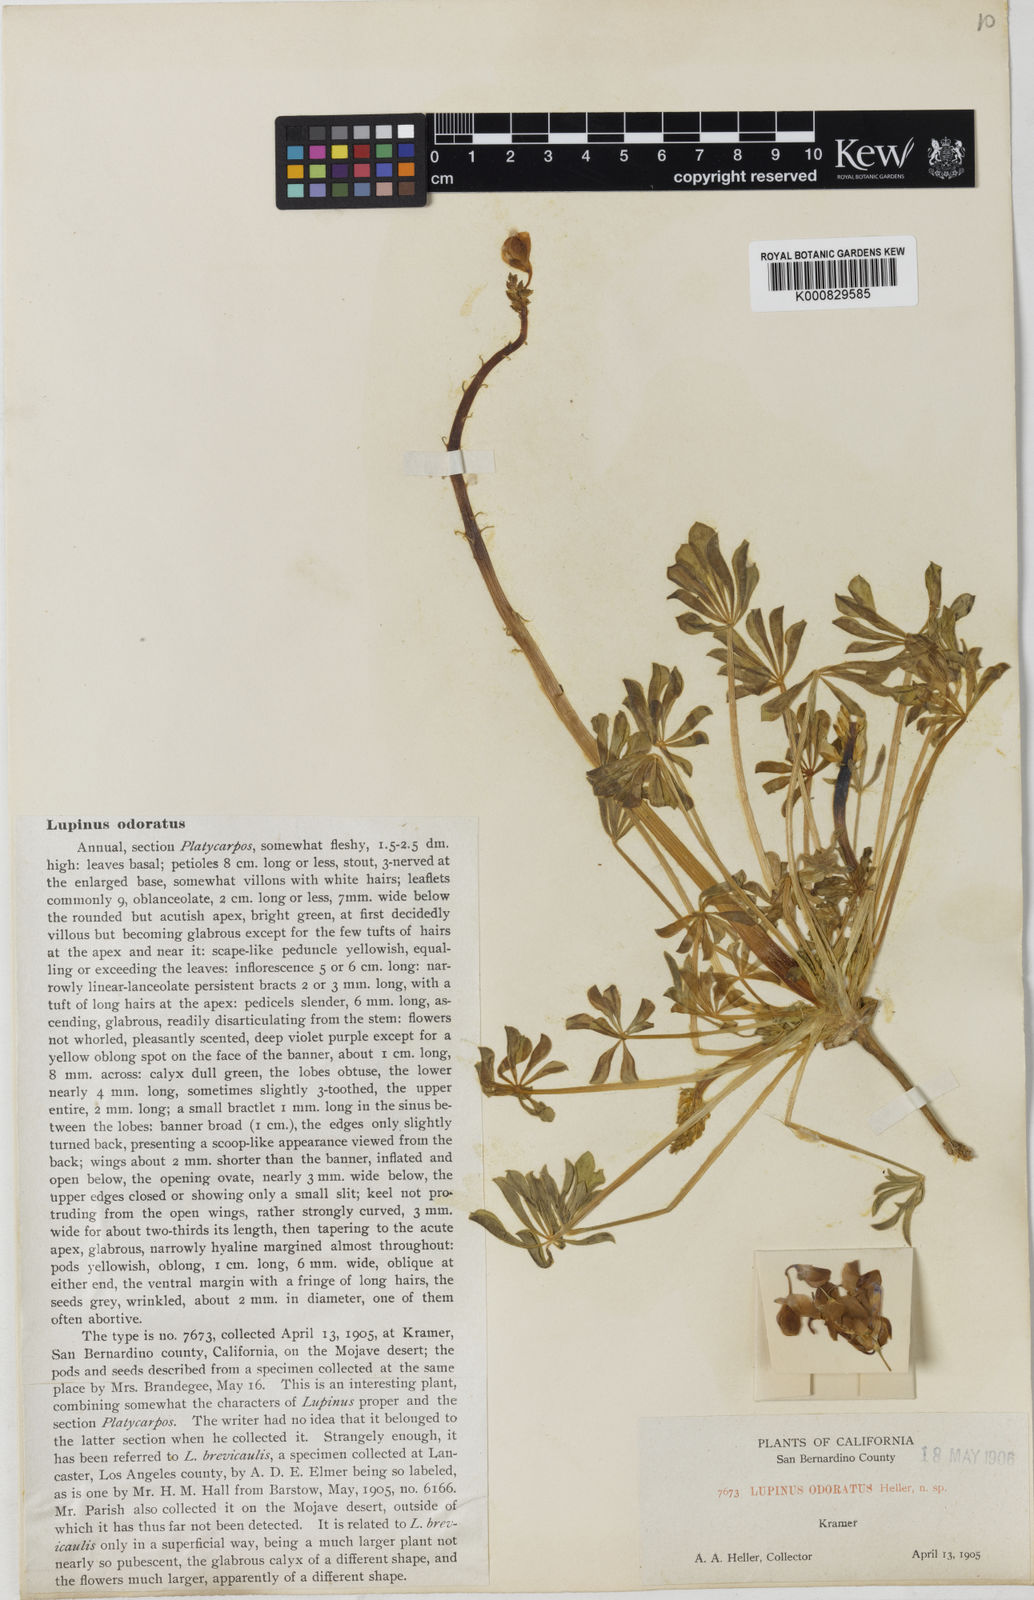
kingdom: Plantae
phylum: Tracheophyta
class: Magnoliopsida
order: Fabales
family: Fabaceae
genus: Lupinus
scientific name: Lupinus odoratus
